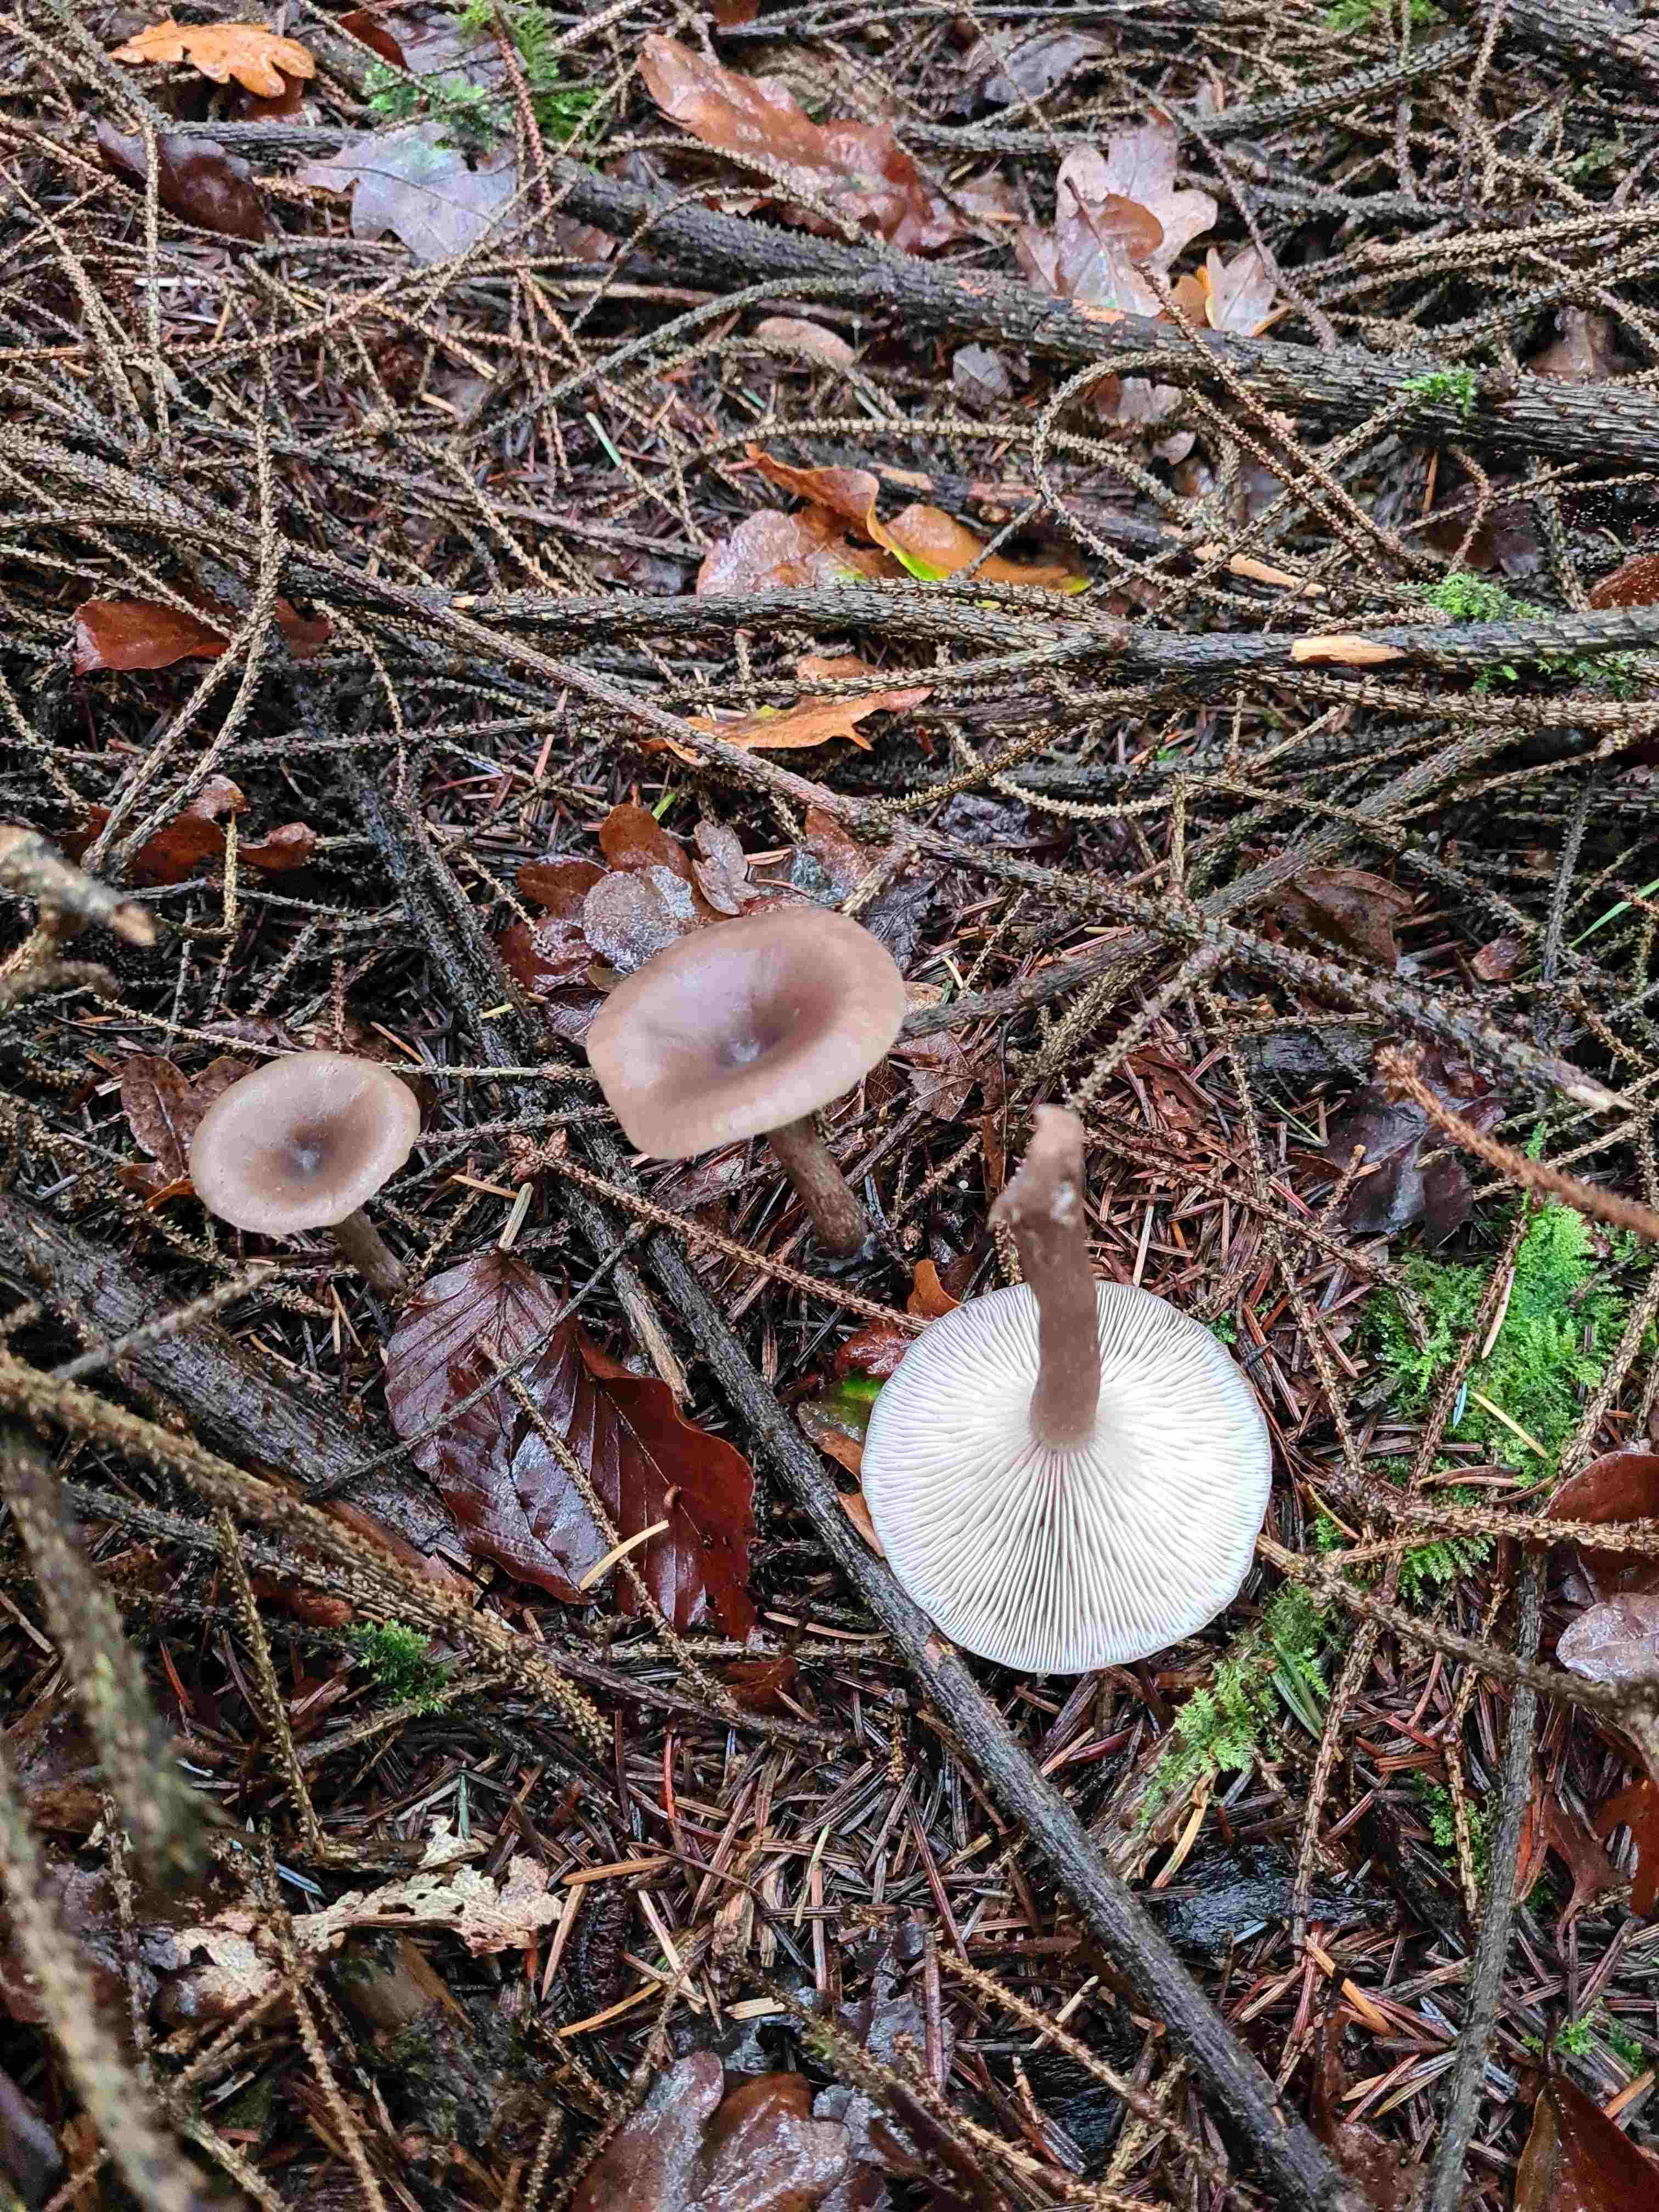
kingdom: Fungi
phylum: Basidiomycota
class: Agaricomycetes
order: Agaricales
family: Pseudoclitocybaceae
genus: Pseudoclitocybe
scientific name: Pseudoclitocybe cyathiformis
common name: almindelig bægertragthat
